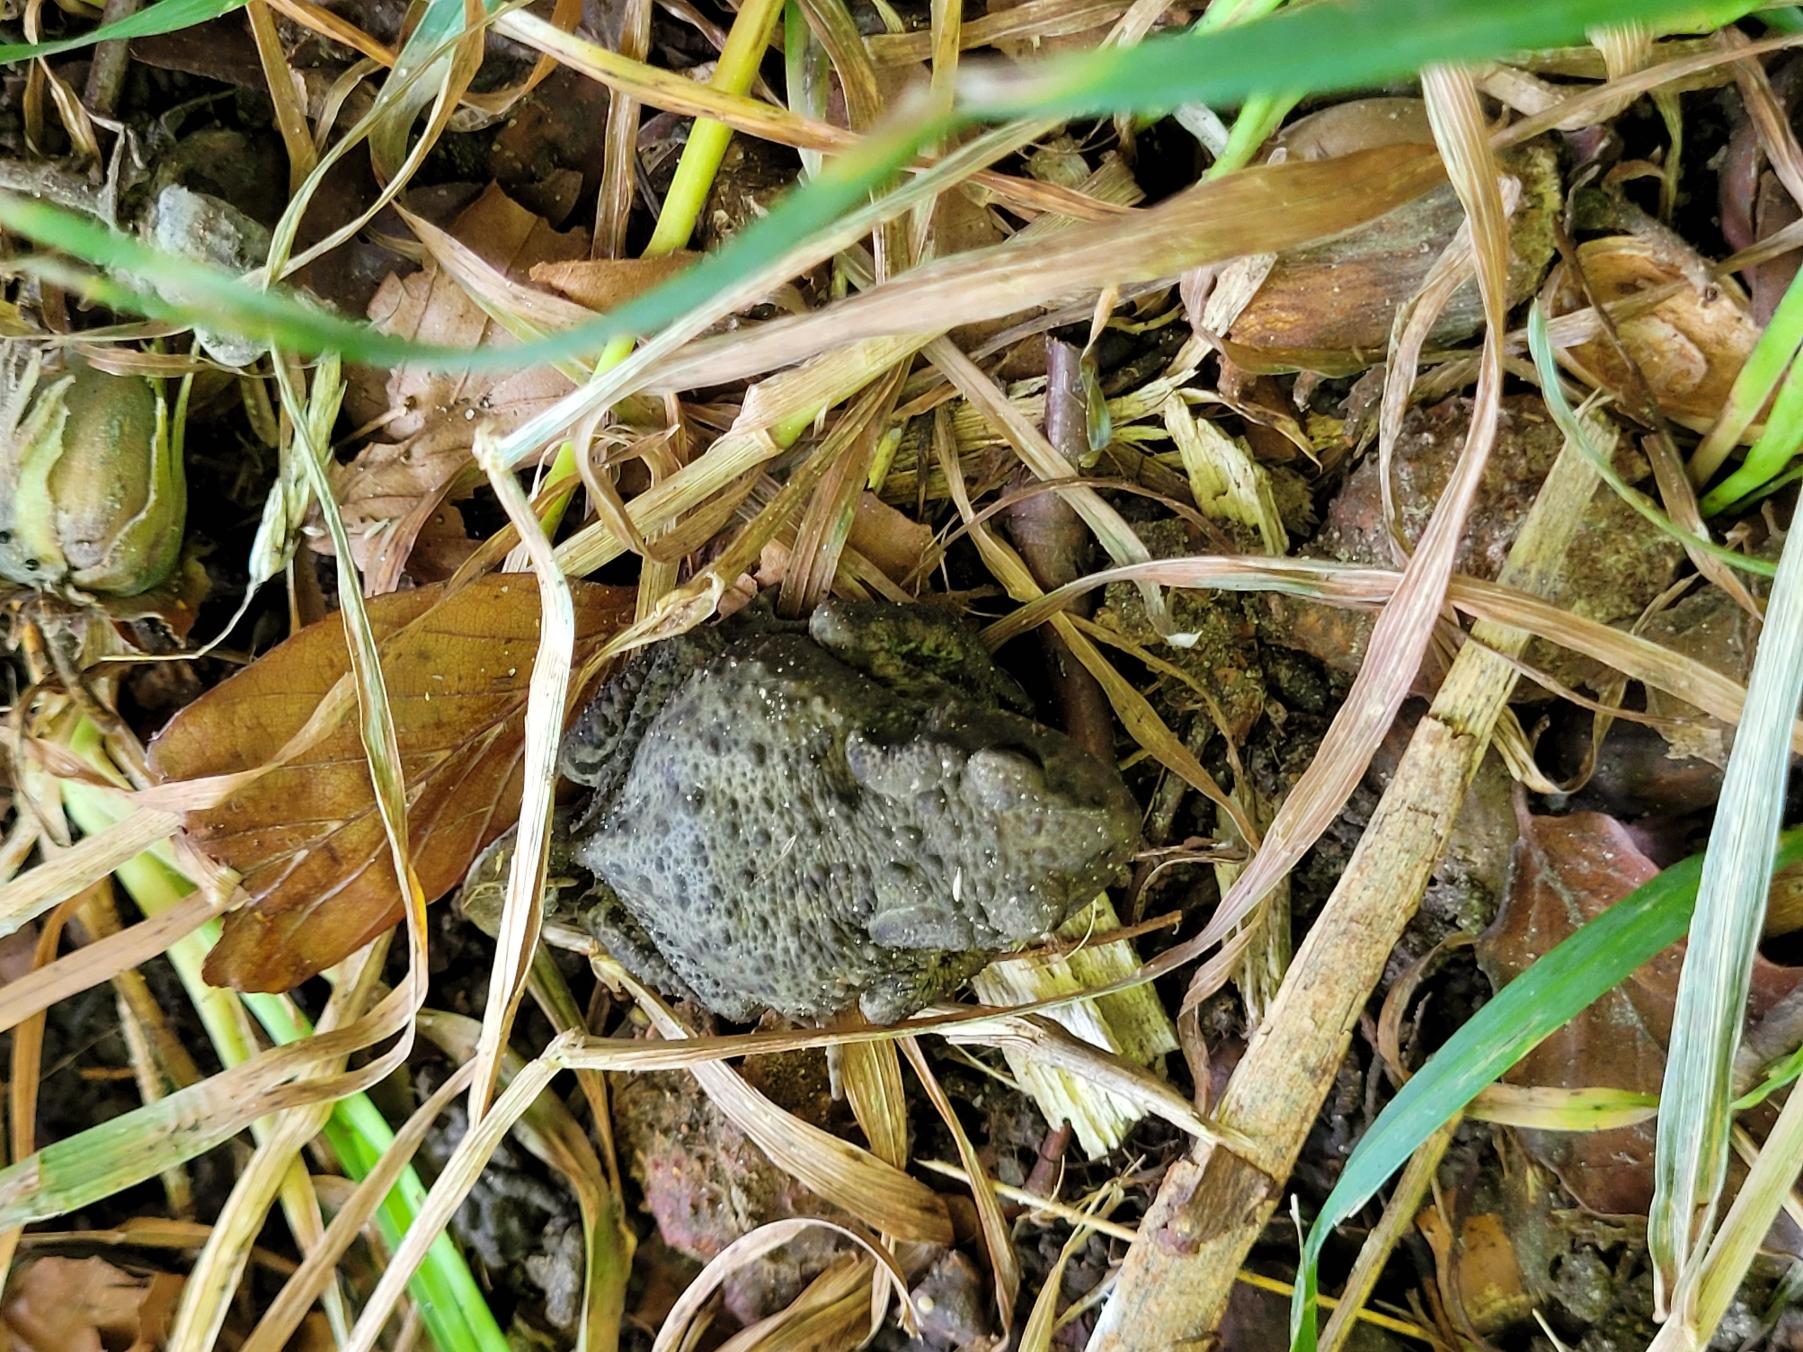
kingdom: Animalia
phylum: Chordata
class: Amphibia
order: Anura
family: Bufonidae
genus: Bufo
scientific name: Bufo bufo
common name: Skrubtudse
